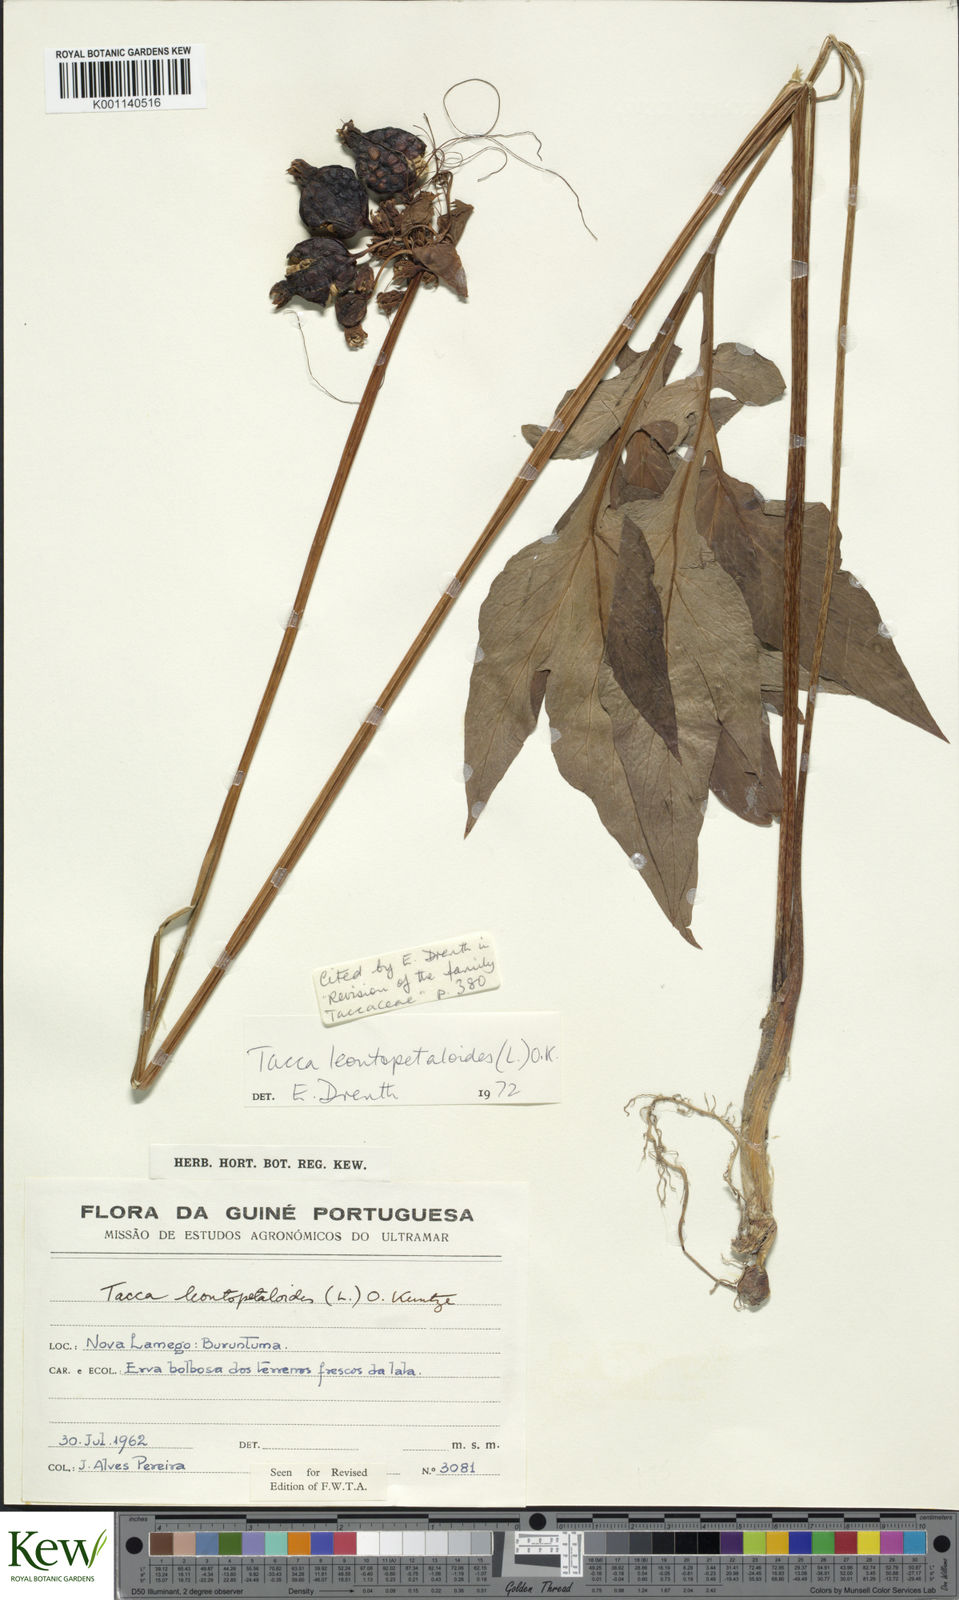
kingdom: Plantae
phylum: Tracheophyta
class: Liliopsida
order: Dioscoreales
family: Dioscoreaceae
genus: Tacca
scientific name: Tacca leontopetaloides
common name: Arrowroot
